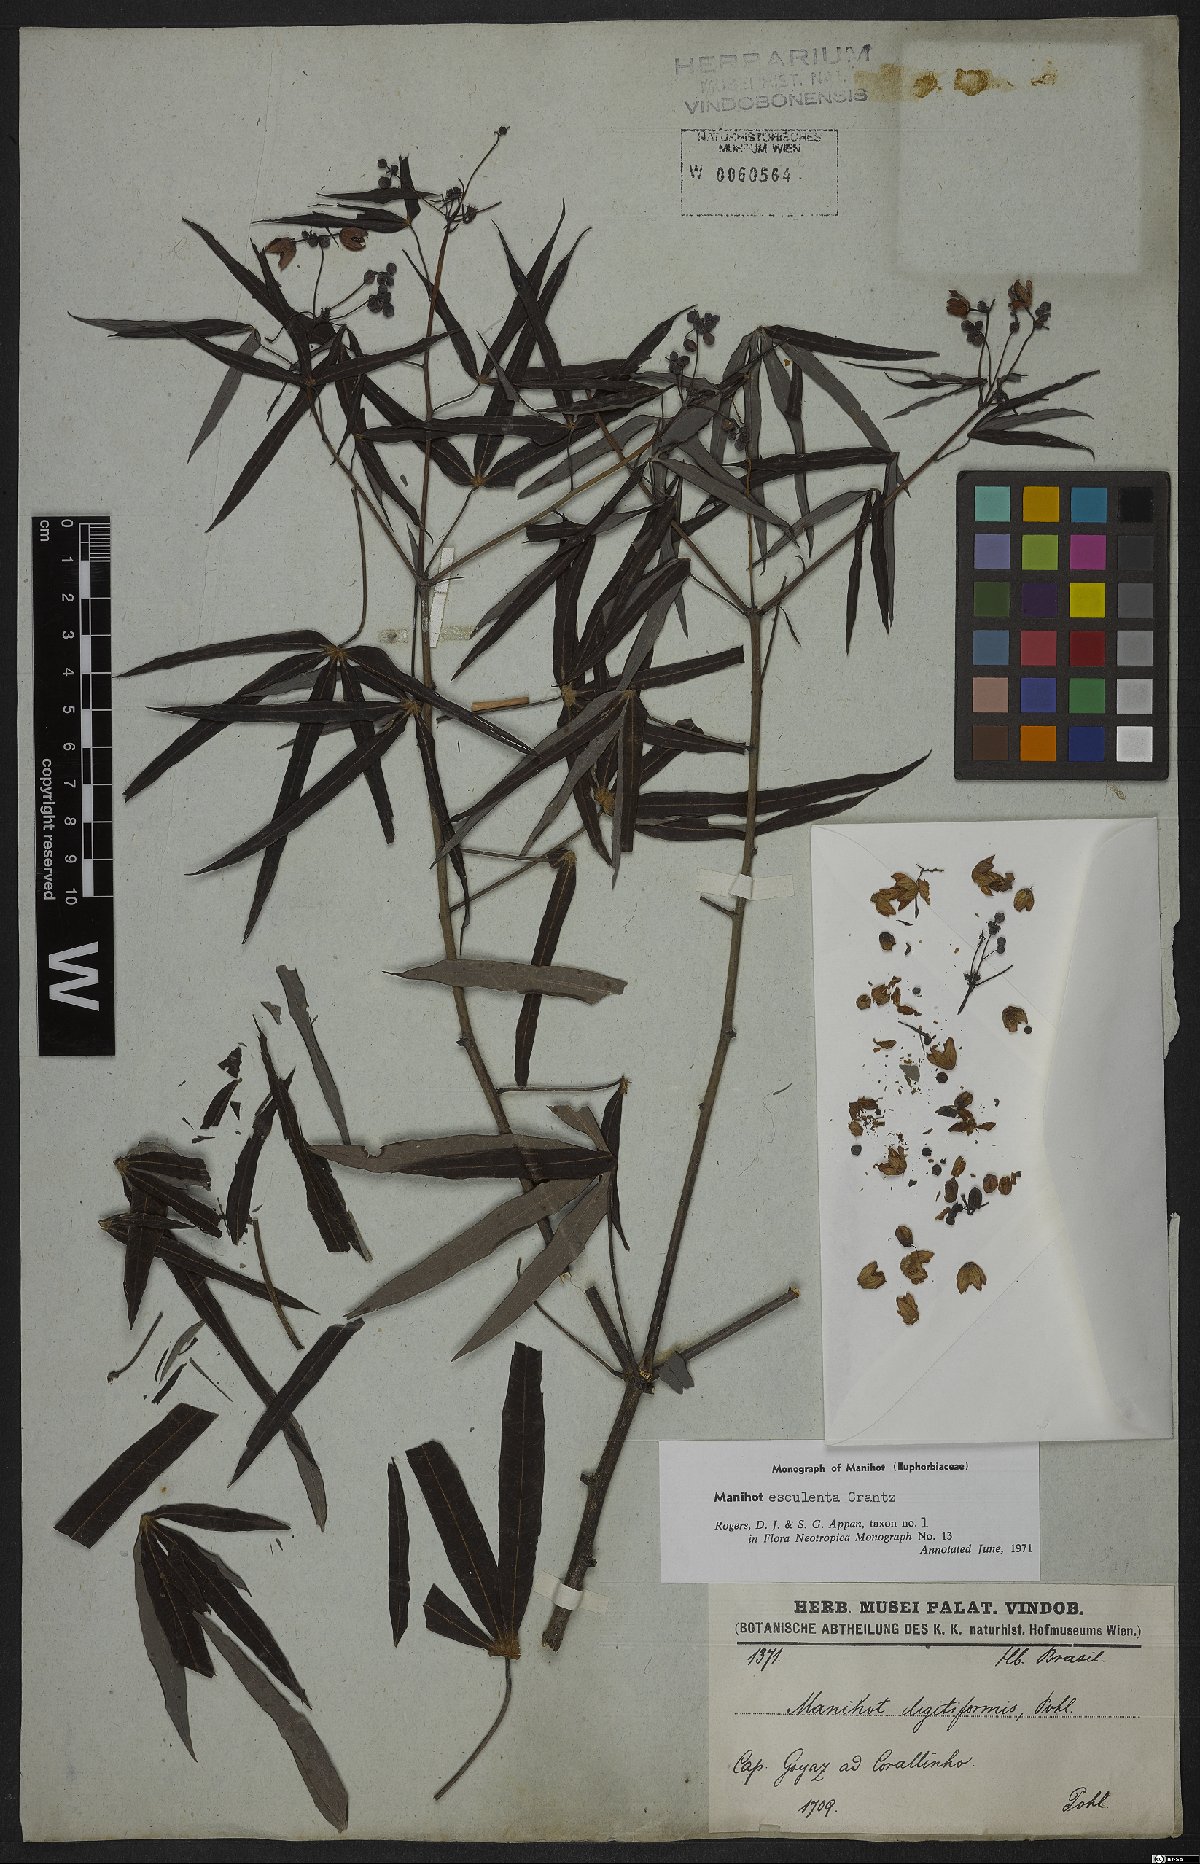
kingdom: Plantae
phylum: Tracheophyta
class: Magnoliopsida
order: Malpighiales
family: Euphorbiaceae
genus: Manihot
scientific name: Manihot esculenta
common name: Cassava
